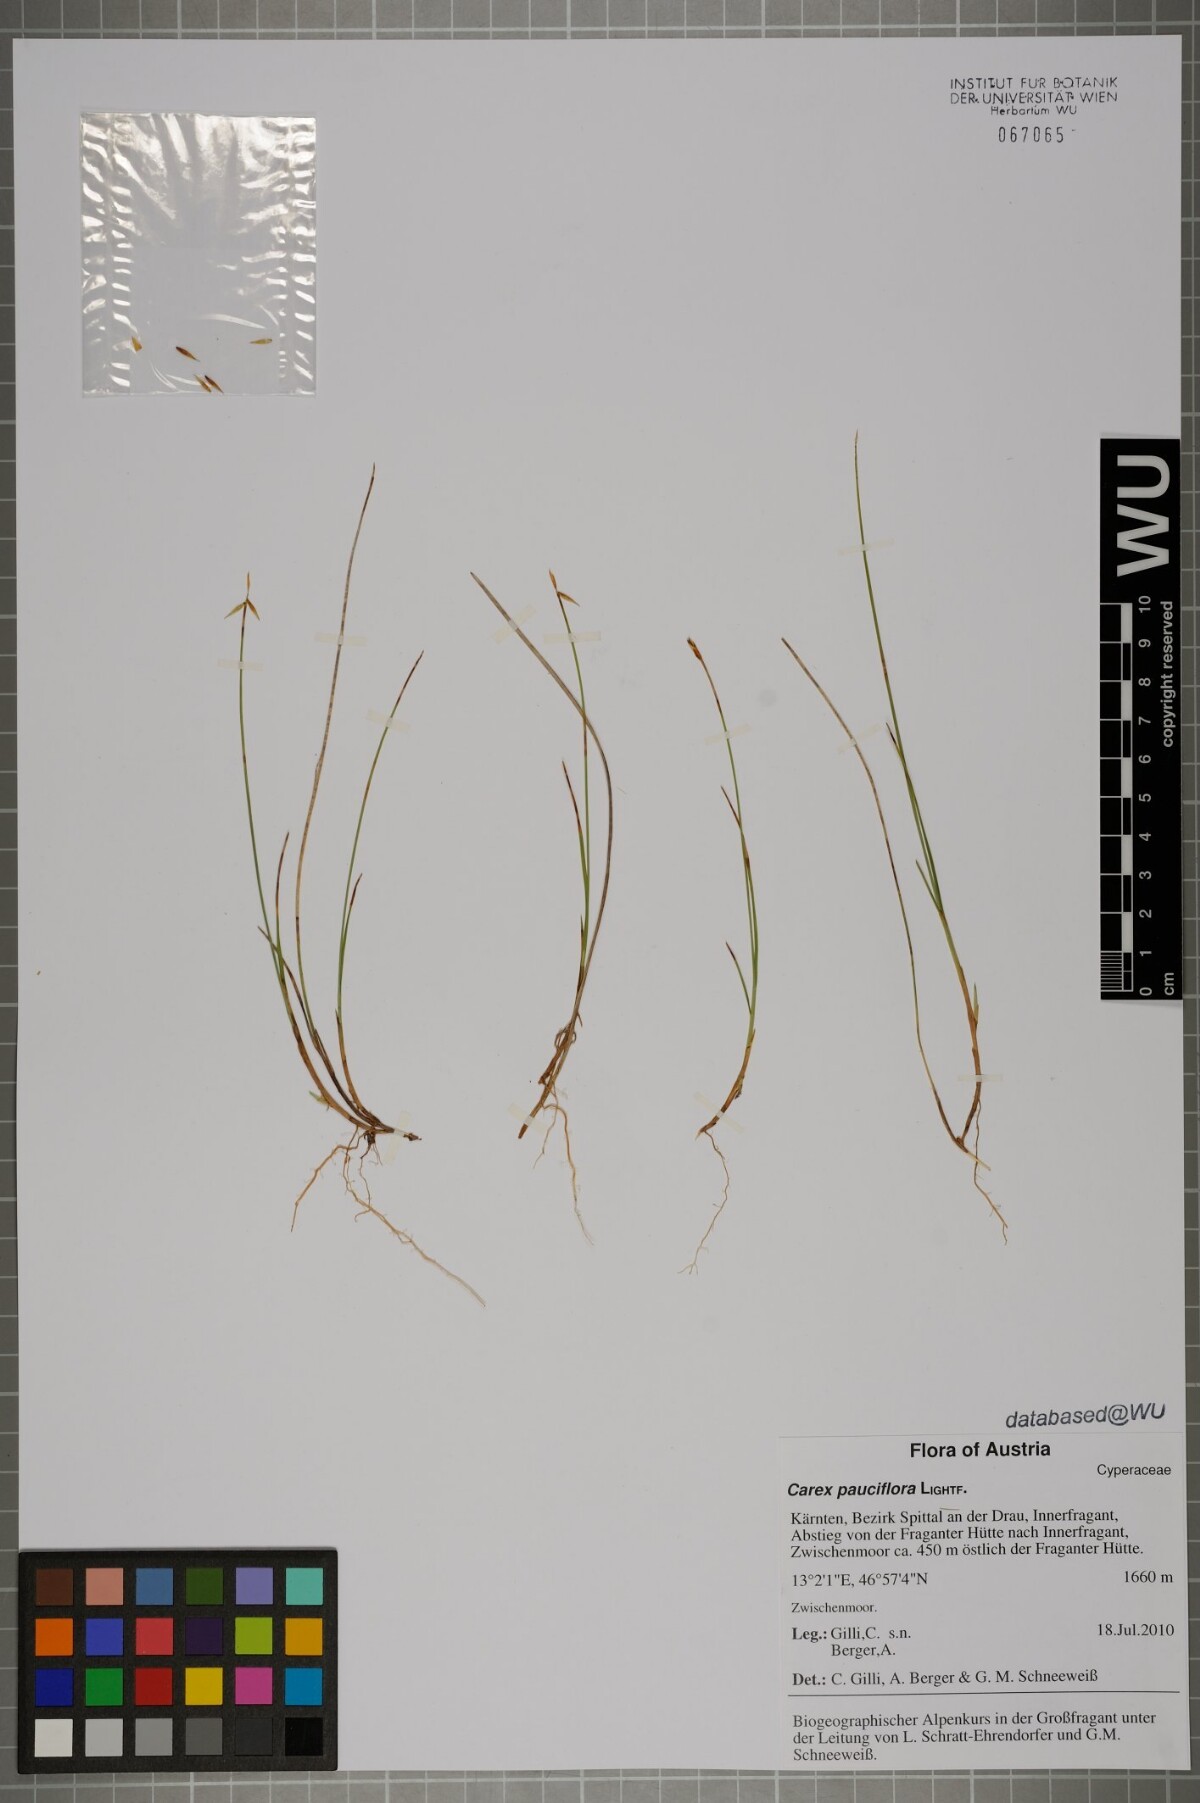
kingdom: Plantae
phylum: Tracheophyta
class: Liliopsida
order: Poales
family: Cyperaceae
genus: Carex
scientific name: Carex pauciflora
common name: Few-flowered sedge
